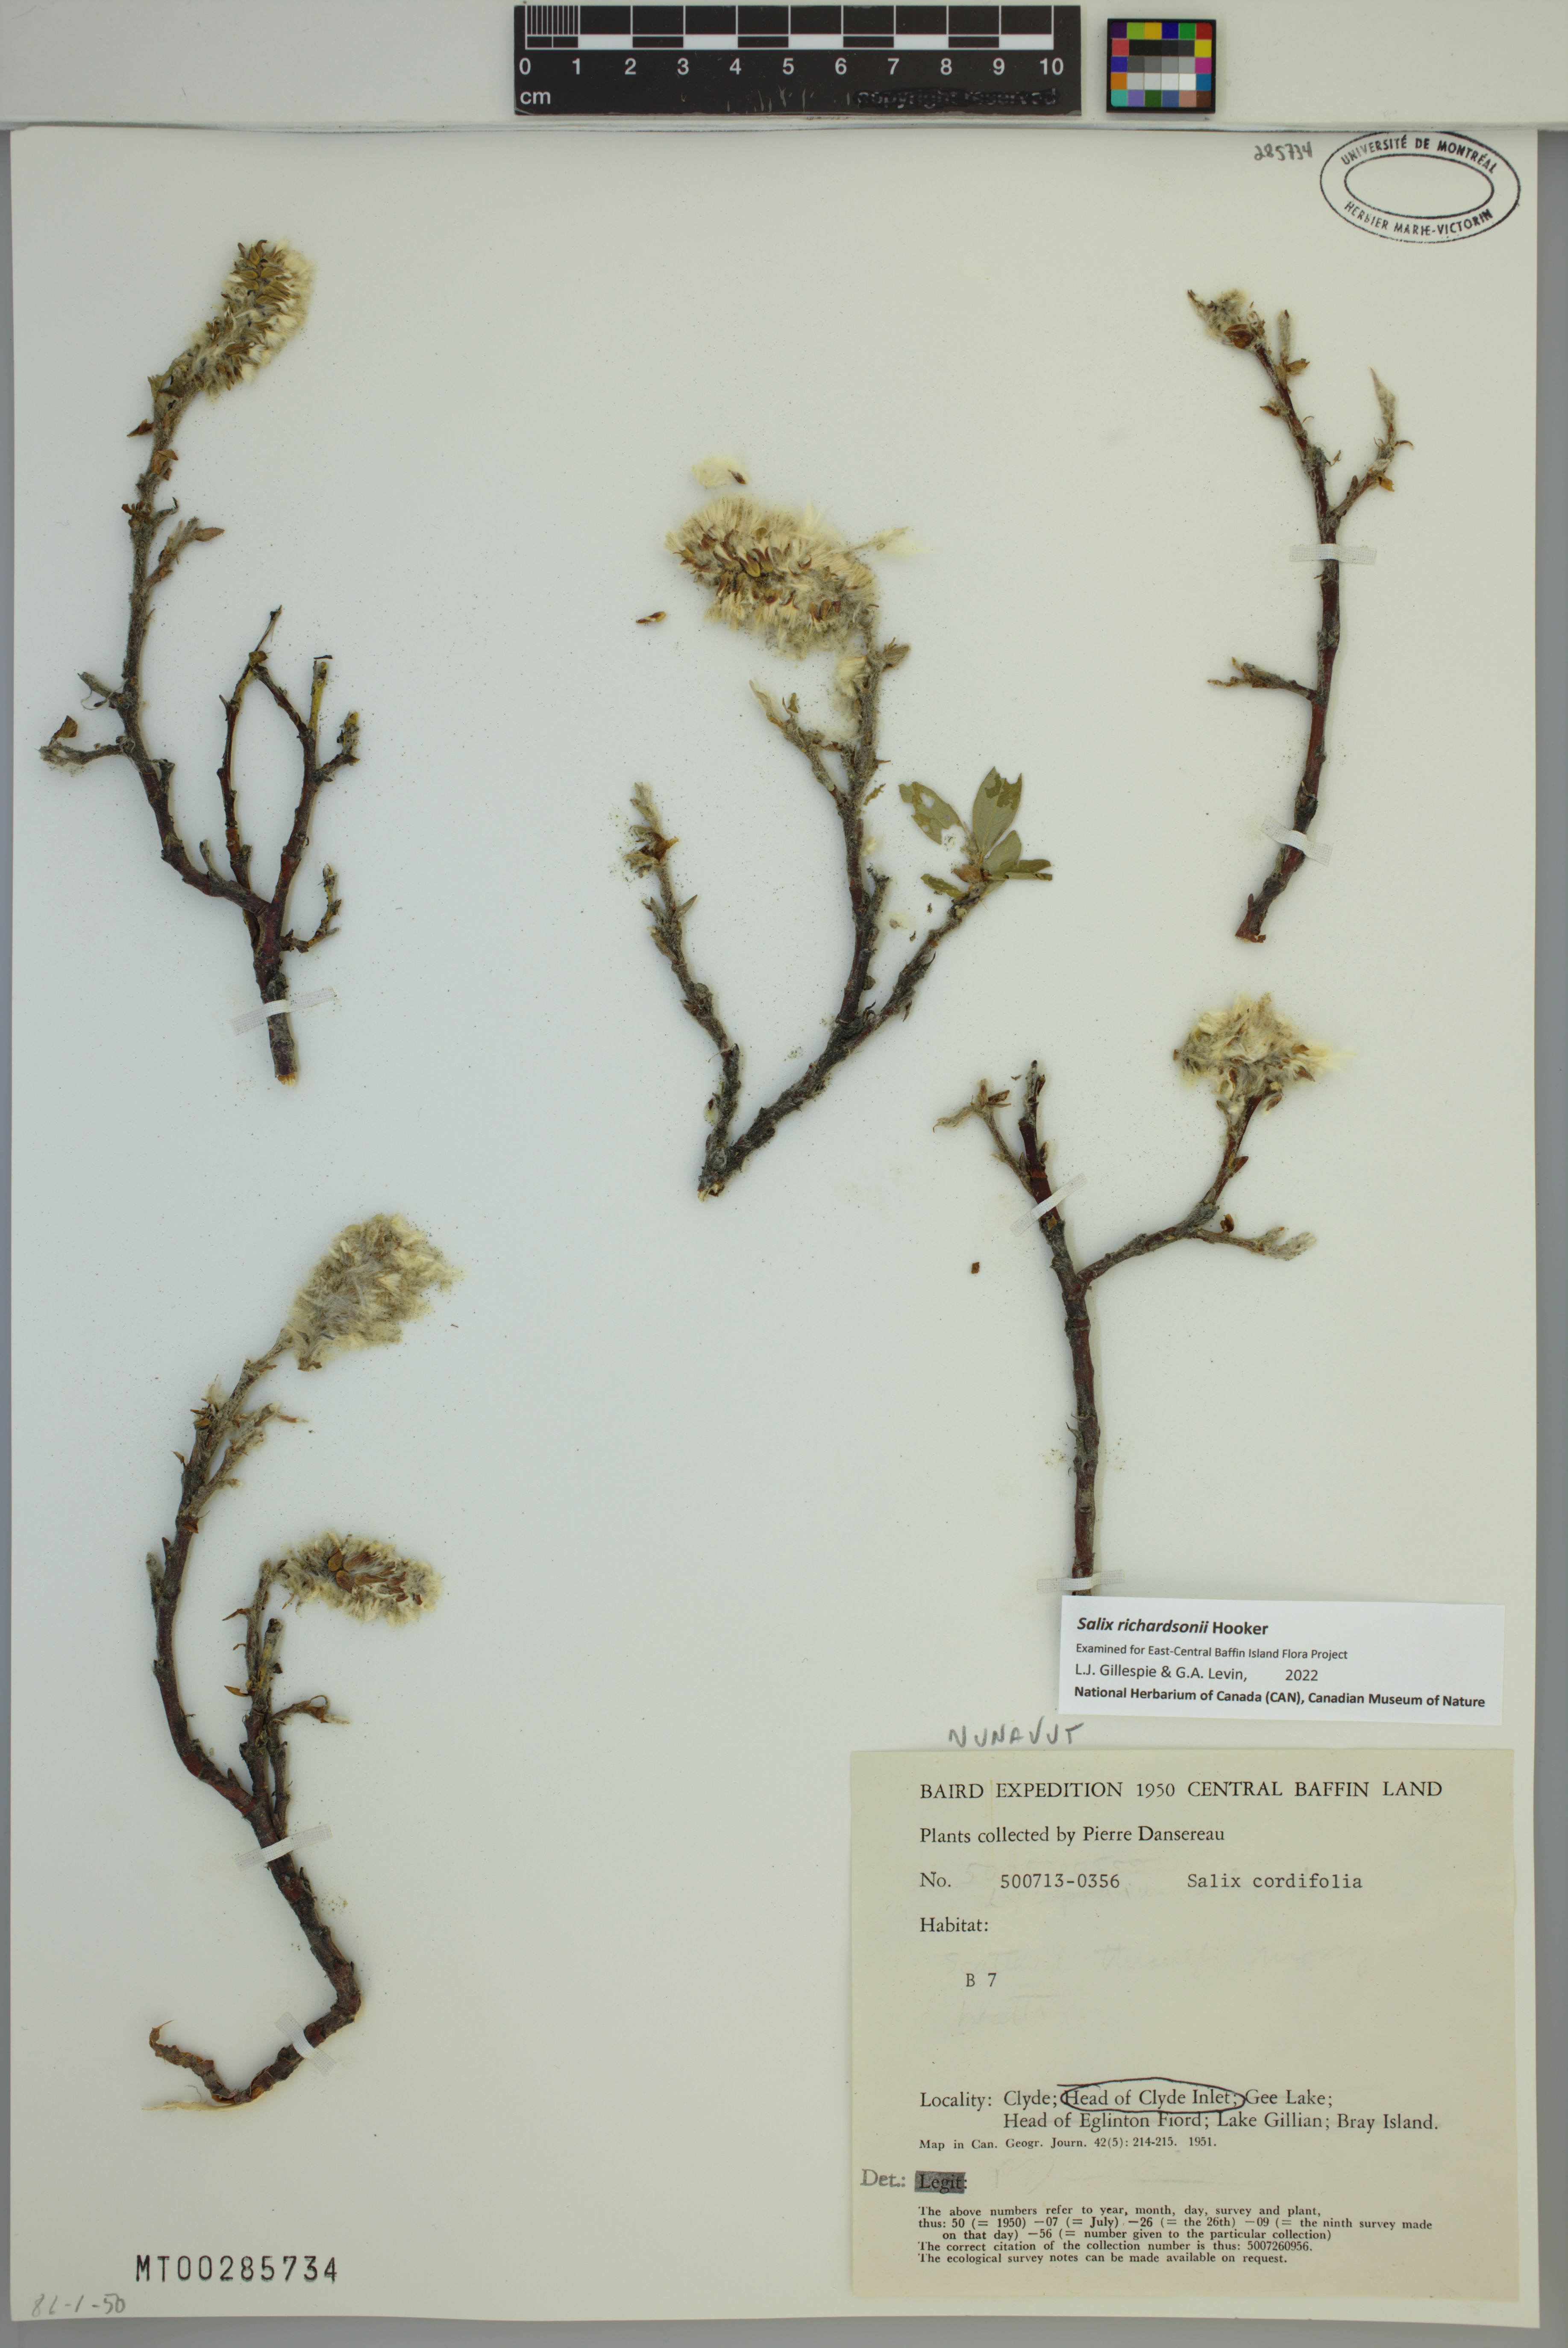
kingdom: Plantae
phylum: Tracheophyta
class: Magnoliopsida
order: Malpighiales
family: Salicaceae
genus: Salix
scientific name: Salix richardsonii
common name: Richardson’s willow
